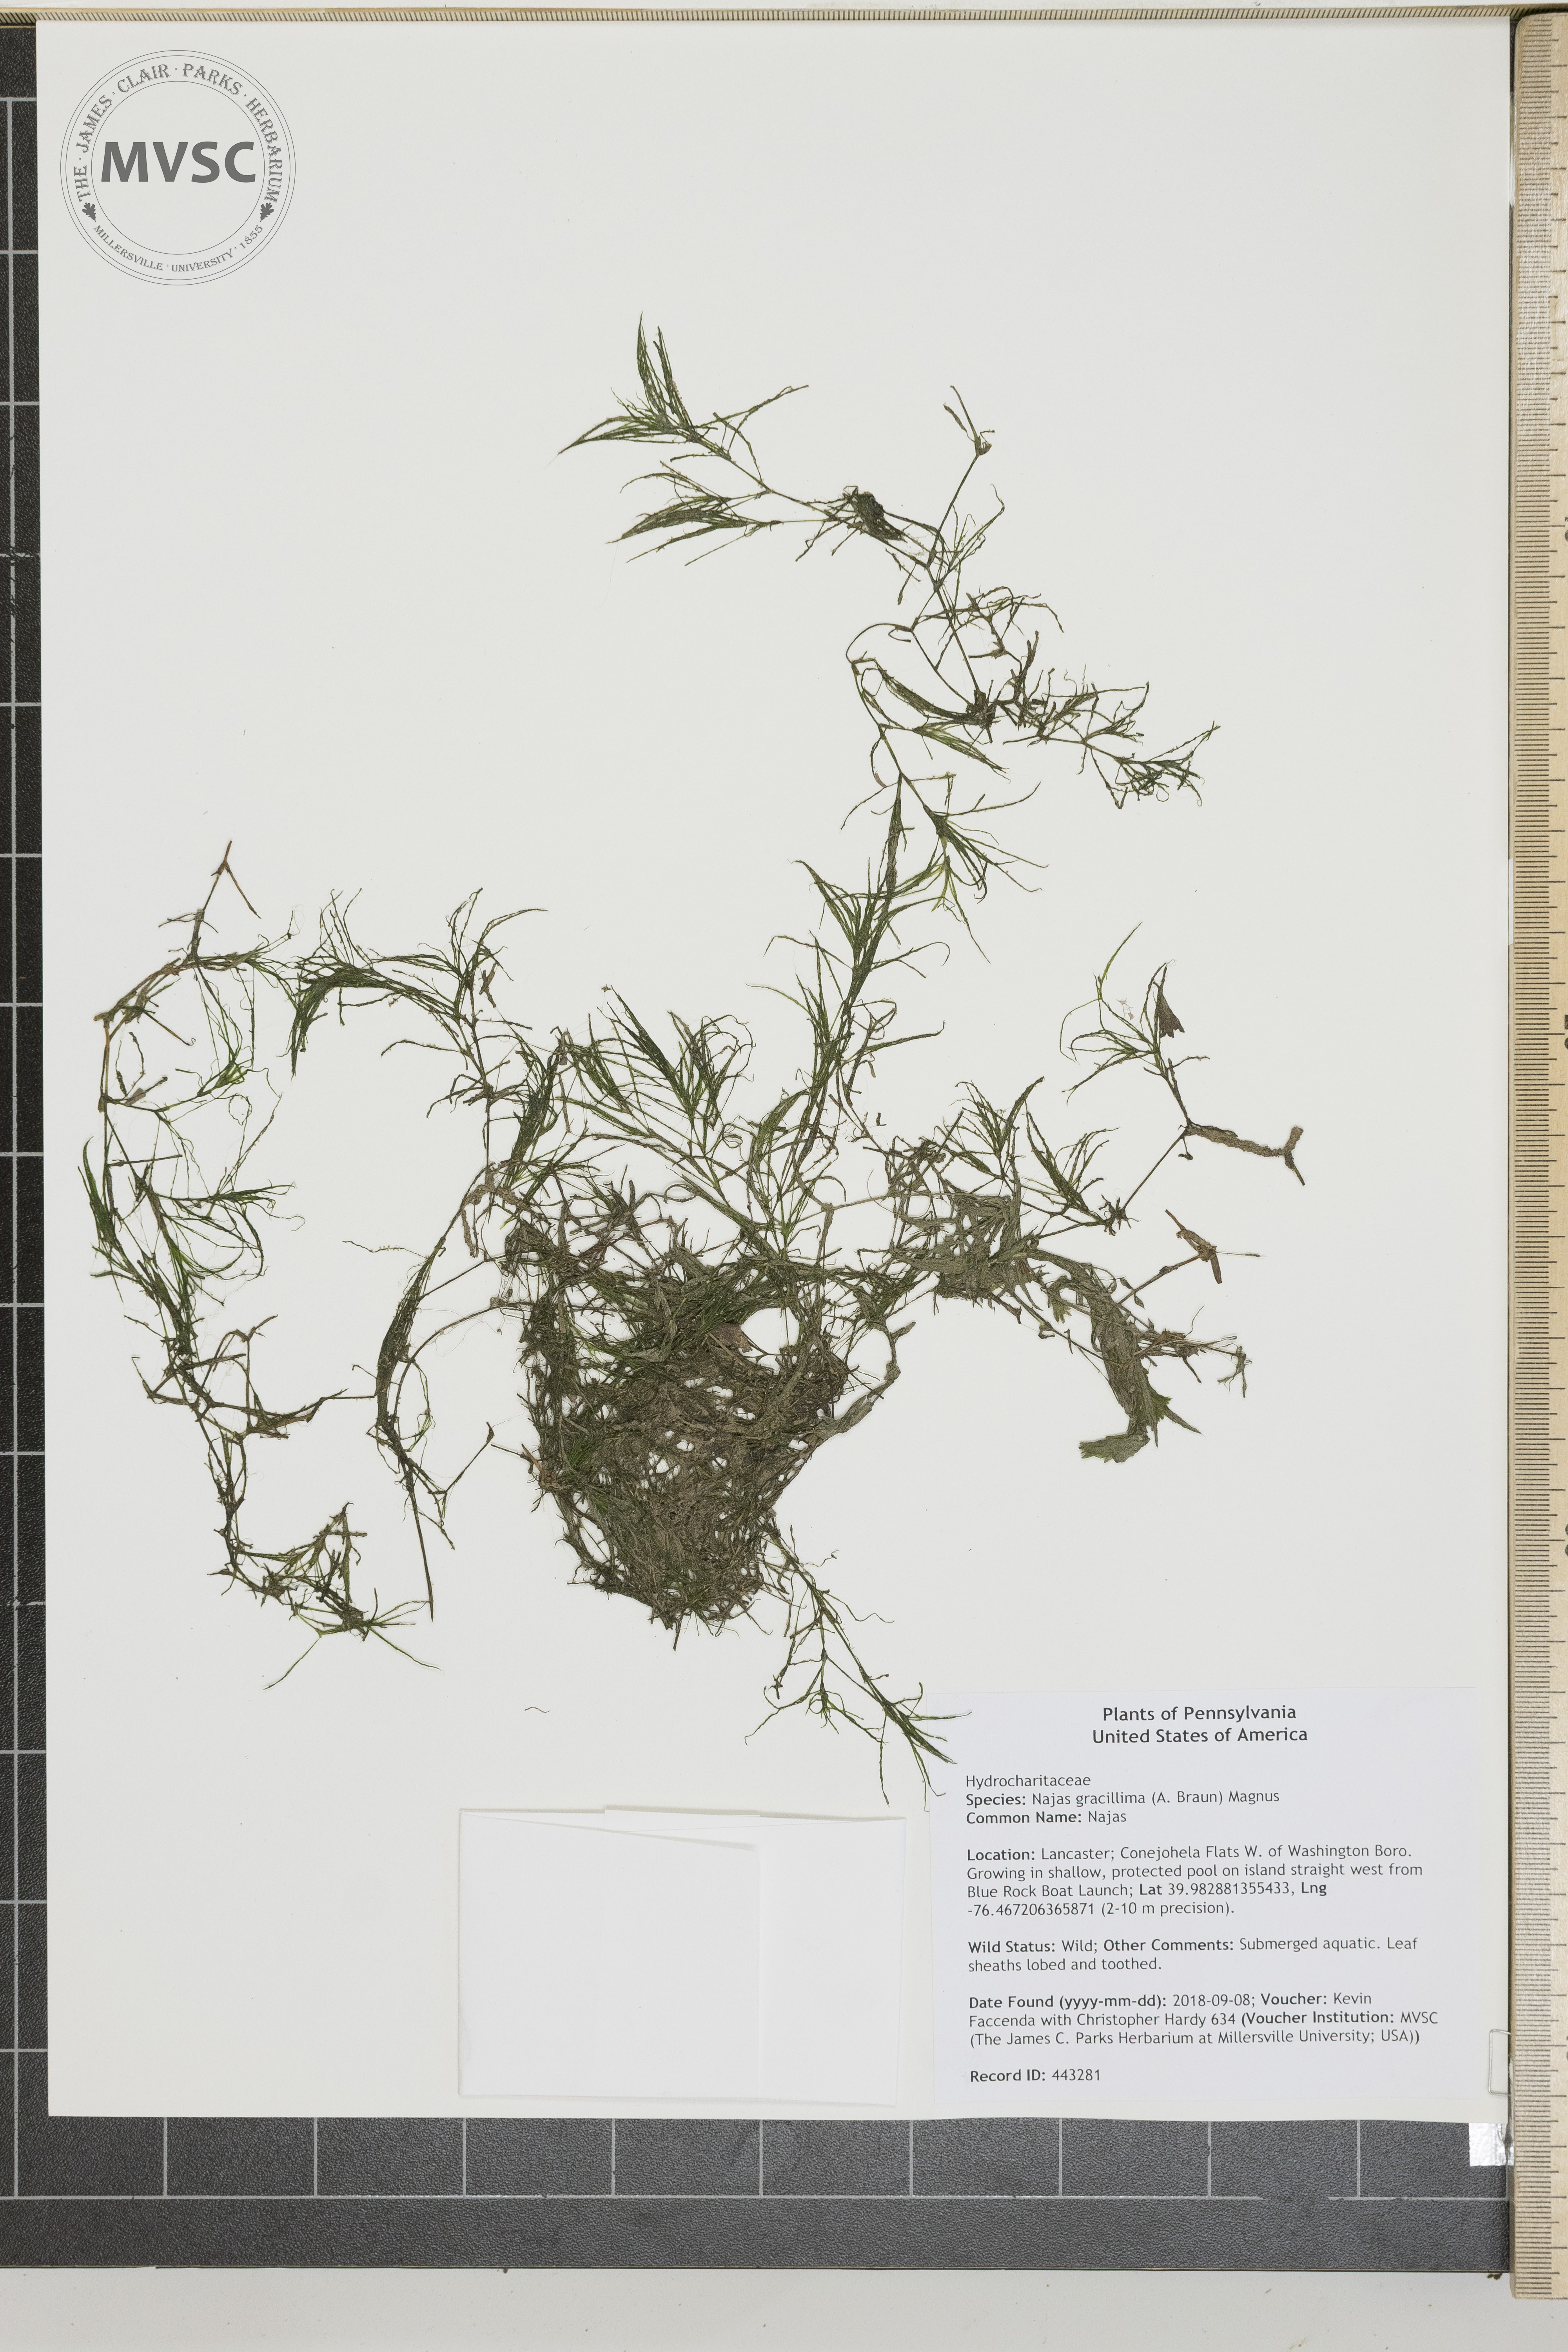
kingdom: Plantae
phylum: Tracheophyta
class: Liliopsida
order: Alismatales
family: Hydrocharitaceae
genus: Najas
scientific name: Najas minor
